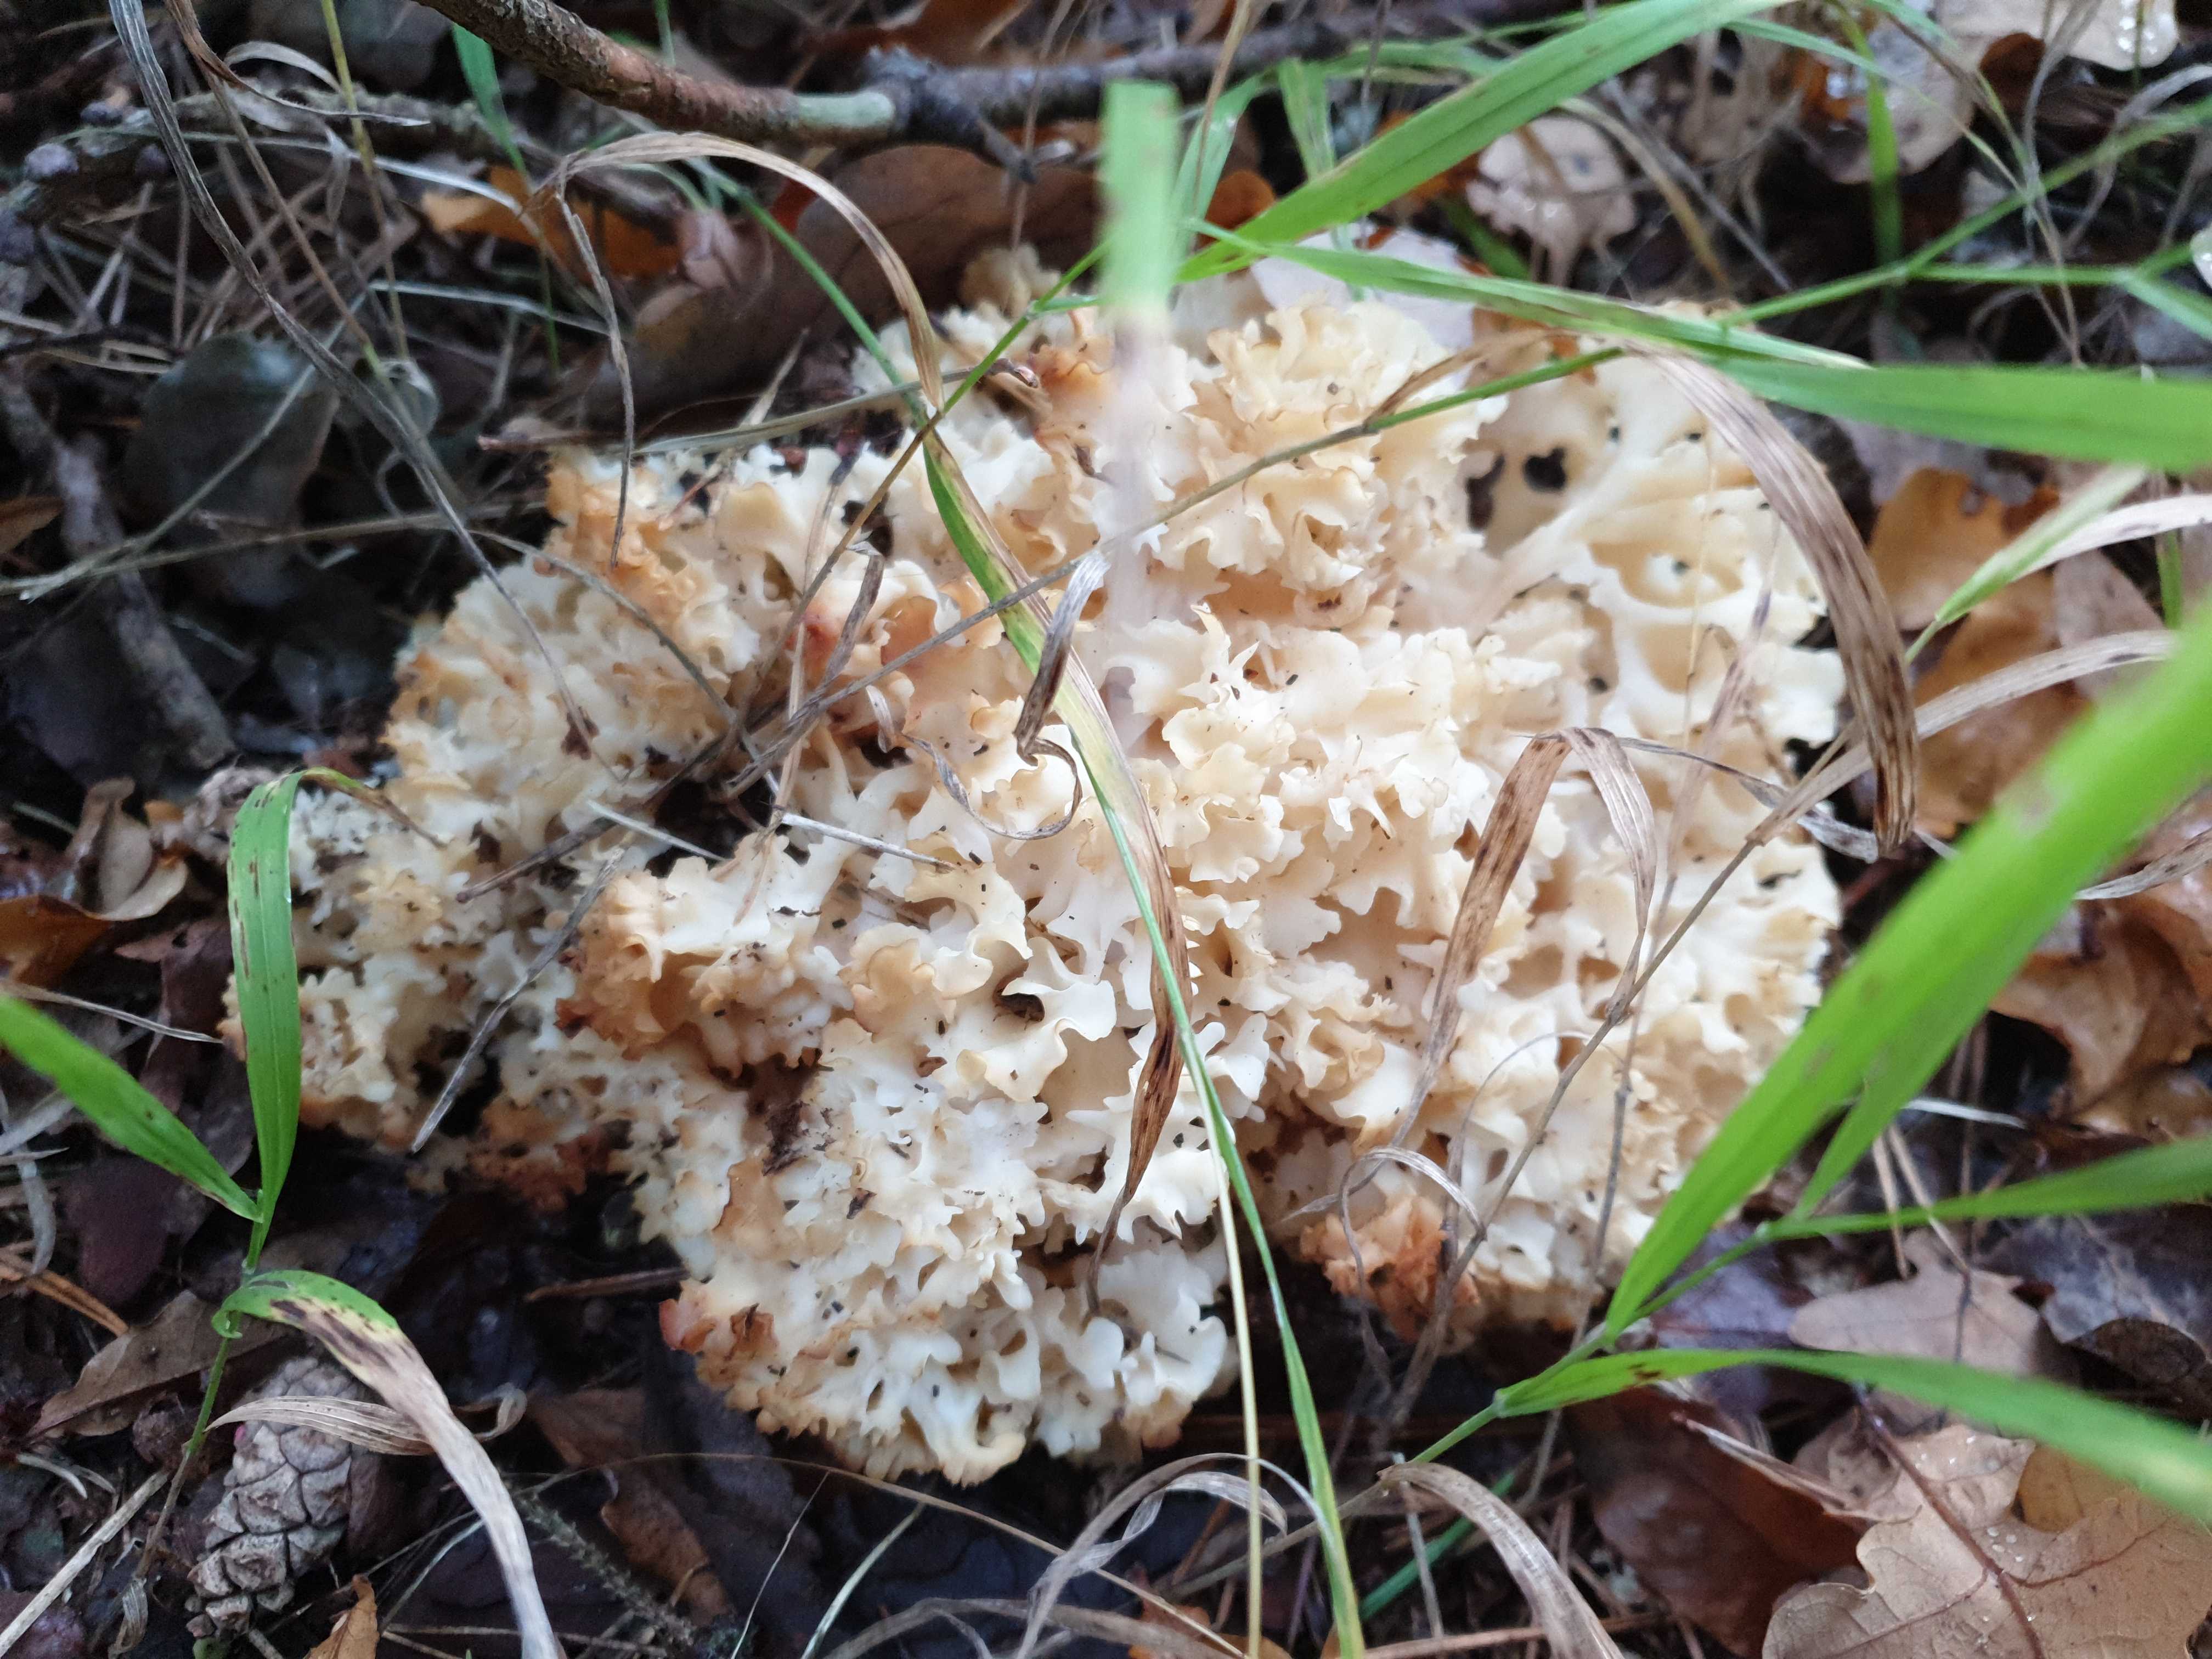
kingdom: Fungi
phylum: Basidiomycota
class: Agaricomycetes
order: Polyporales
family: Sparassidaceae
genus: Sparassis
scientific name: Sparassis crispa
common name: kruset blomkålssvamp
